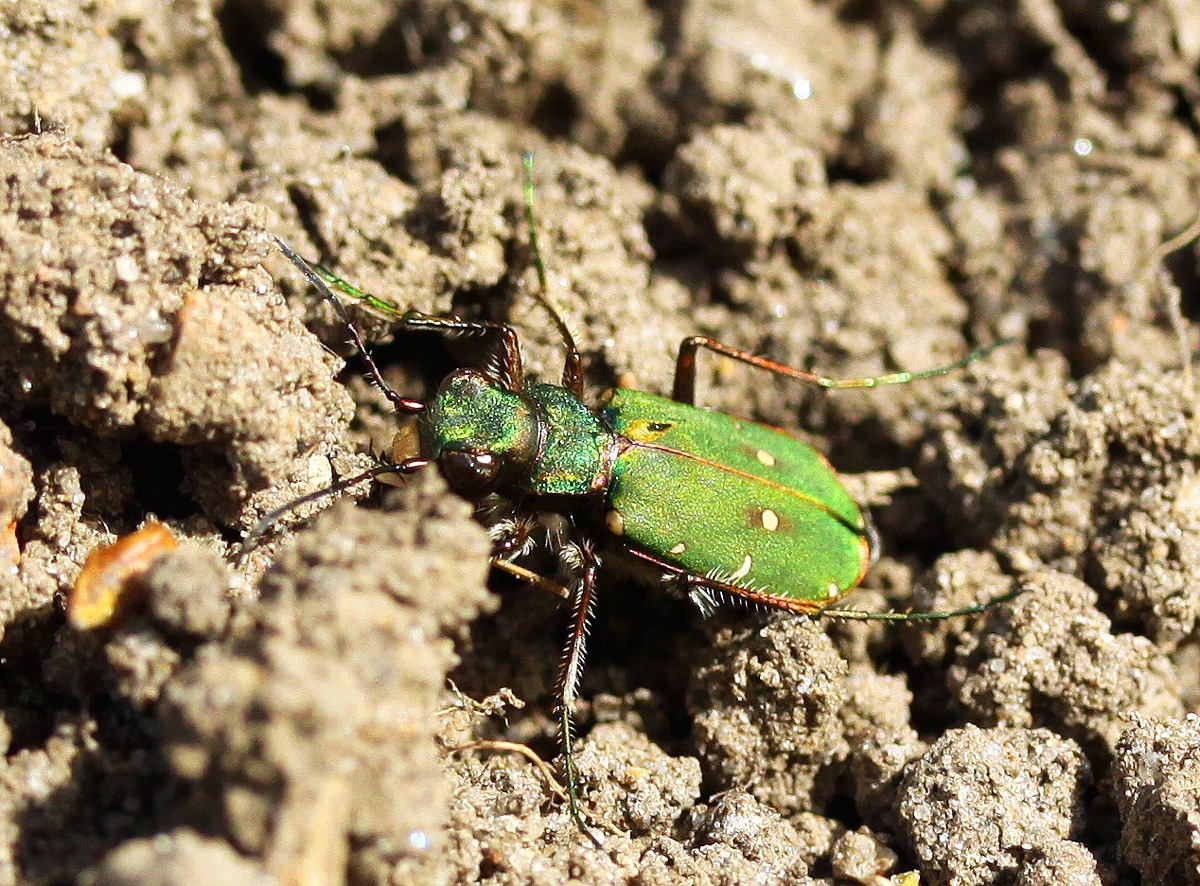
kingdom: Animalia
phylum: Arthropoda
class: Insecta
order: Coleoptera
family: Carabidae
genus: Cicindela
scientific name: Cicindela campestris
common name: Grøn sandspringer
